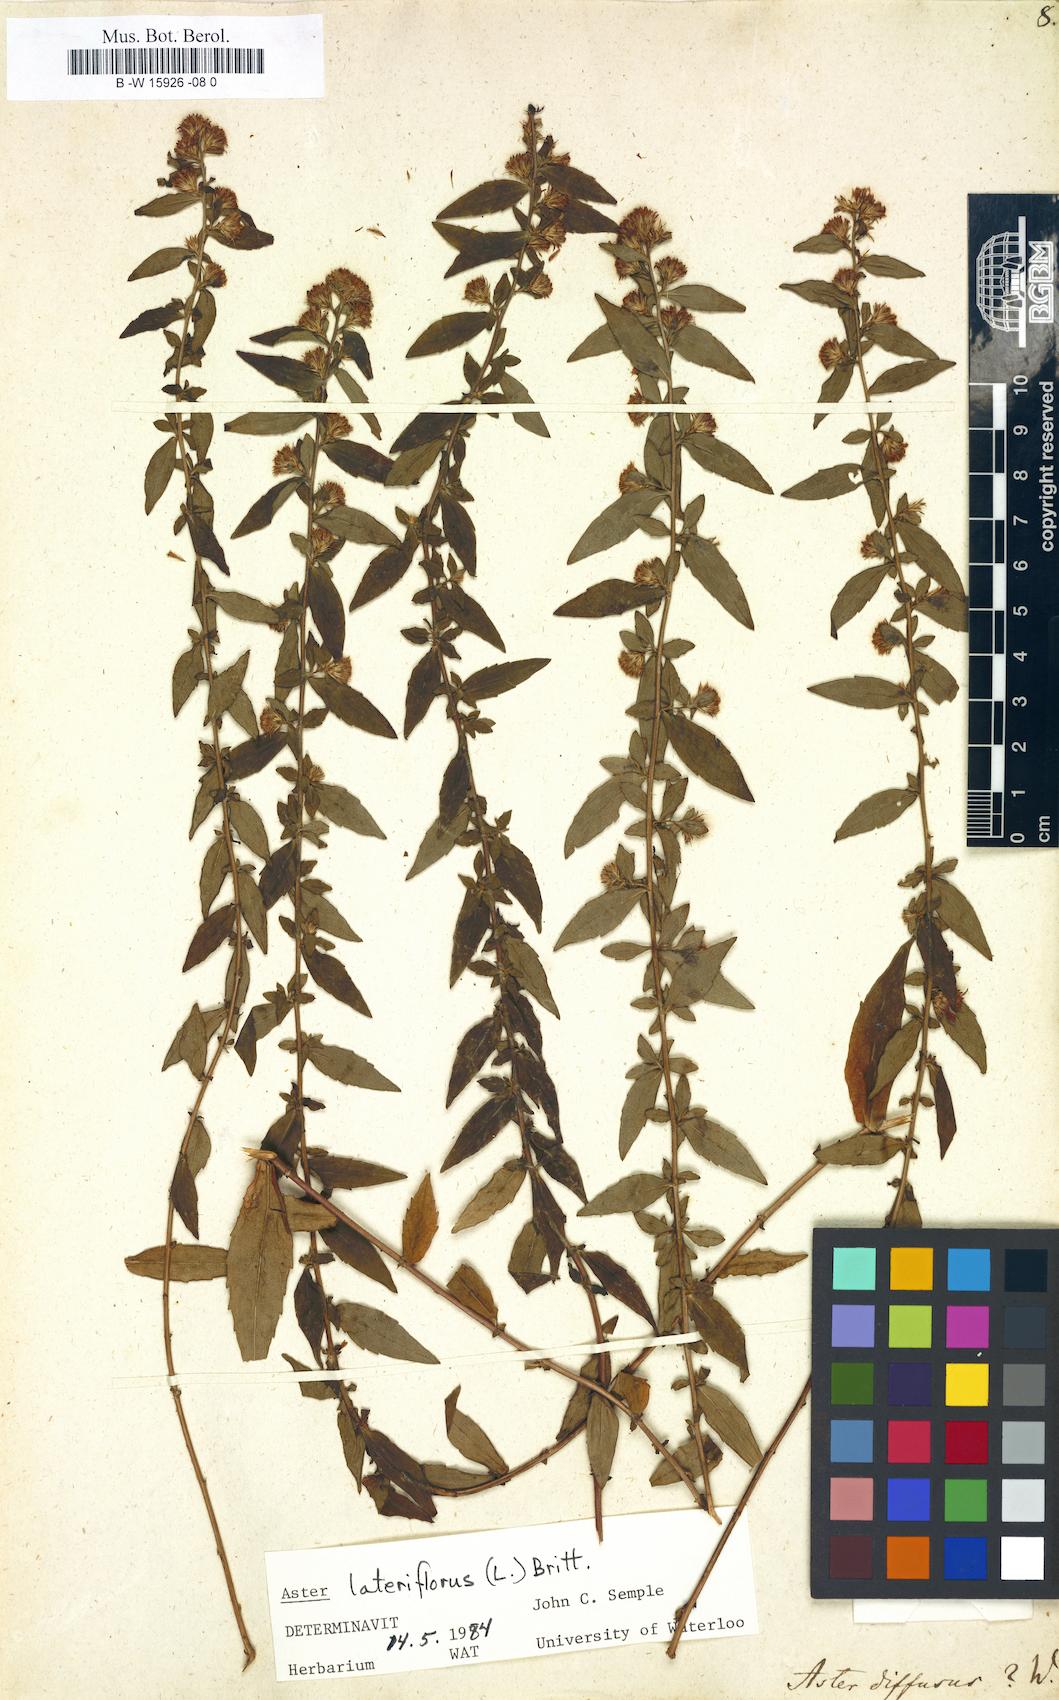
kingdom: Plantae
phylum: Tracheophyta
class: Magnoliopsida
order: Asterales
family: Asteraceae
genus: Symphyotrichum
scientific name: Symphyotrichum lateriflorum
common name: Calico aster
